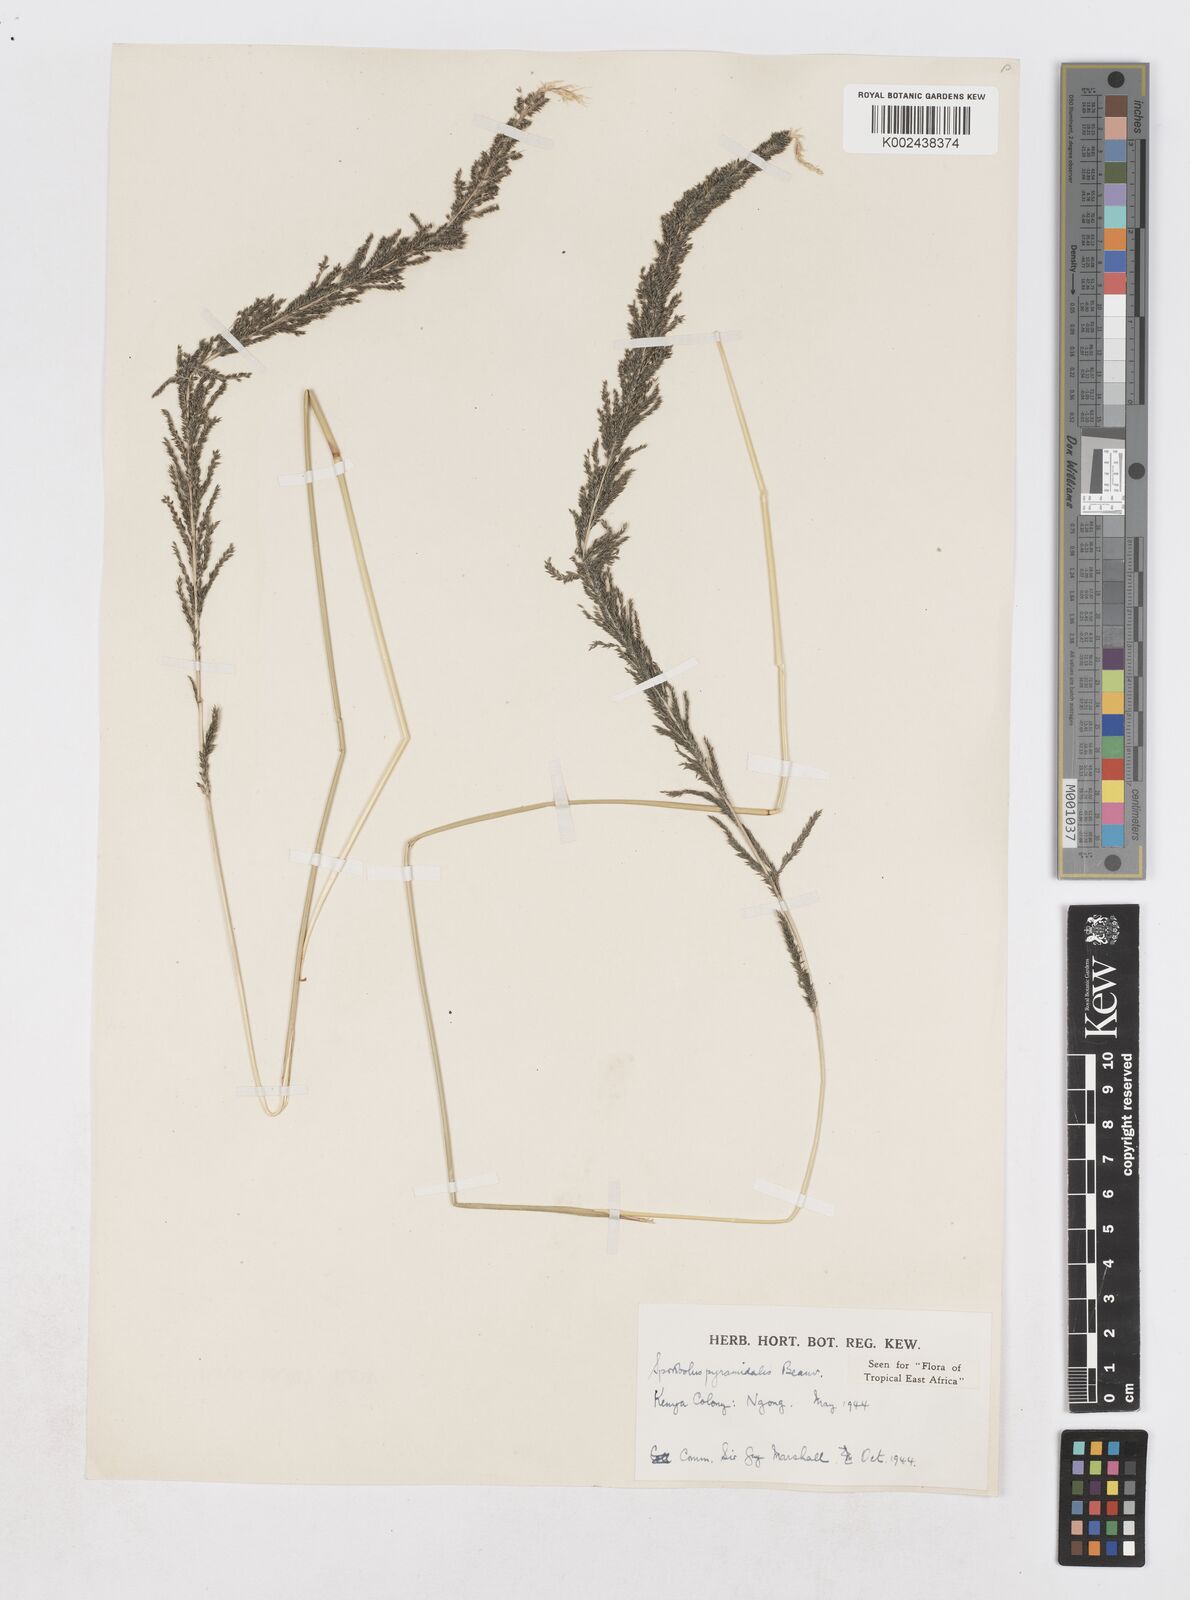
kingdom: Plantae
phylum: Tracheophyta
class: Liliopsida
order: Poales
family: Poaceae
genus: Sporobolus
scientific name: Sporobolus pyramidalis
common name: West indian dropseed
